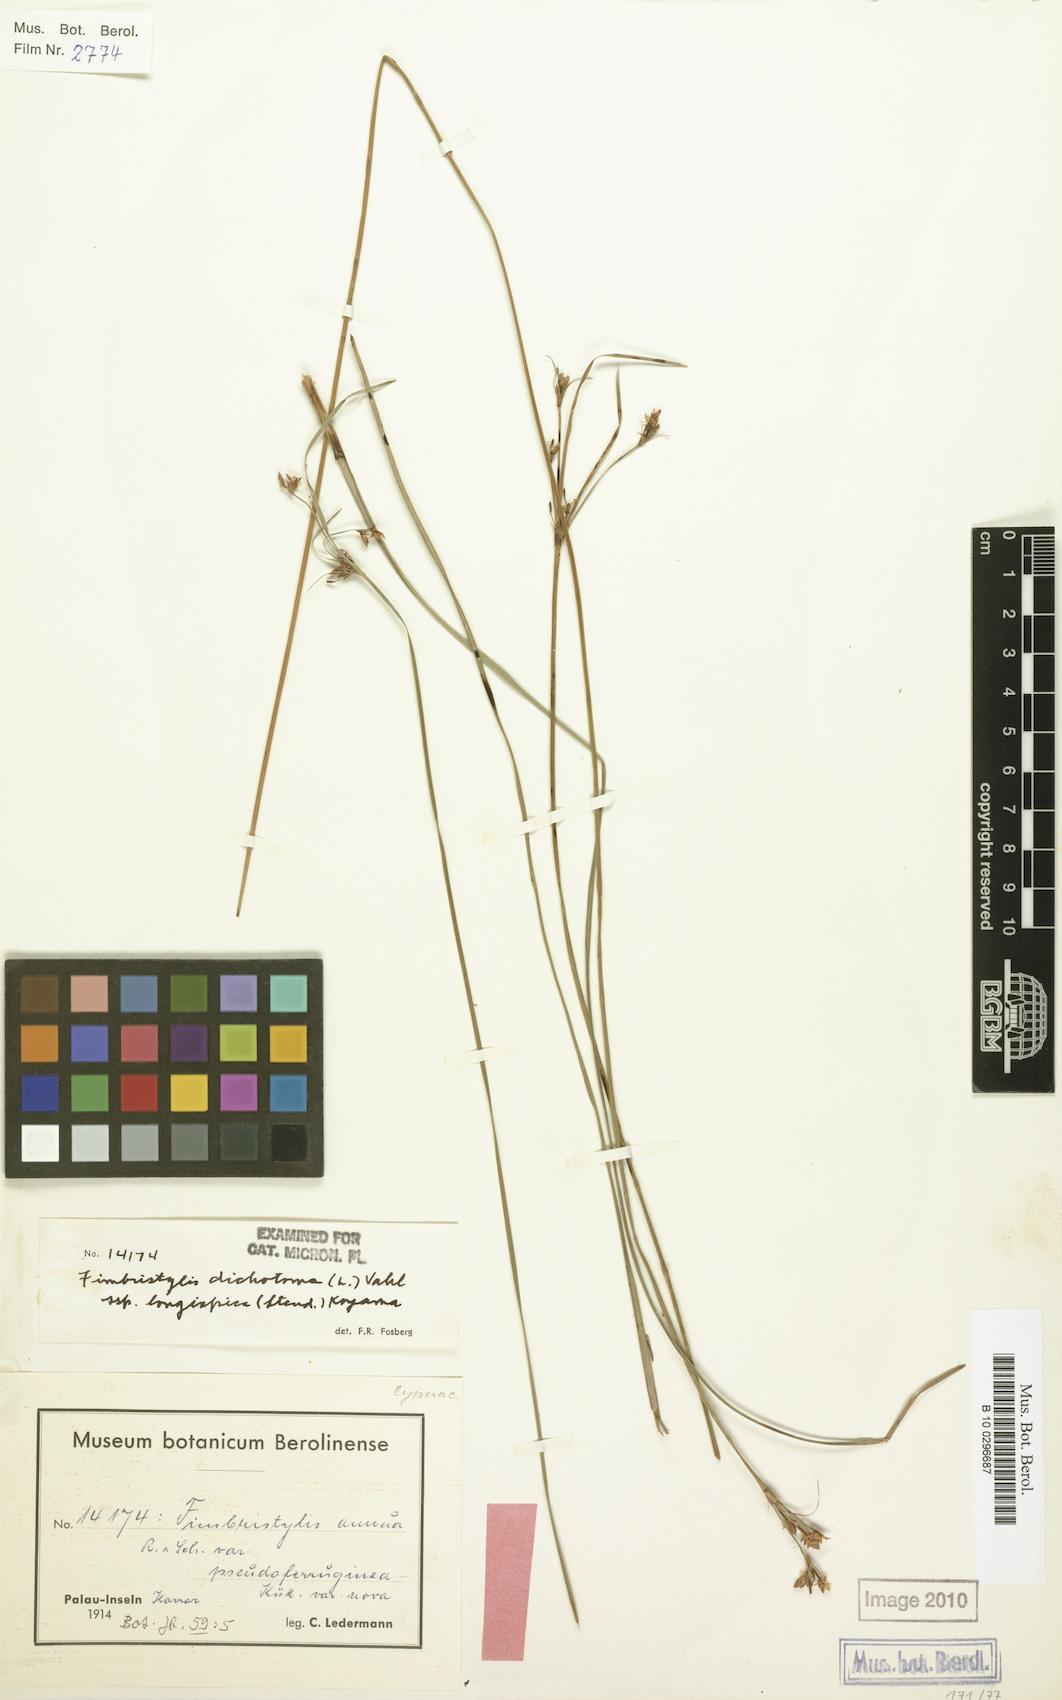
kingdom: Plantae
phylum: Tracheophyta
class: Liliopsida
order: Poales
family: Cyperaceae
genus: Fimbristylis
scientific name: Fimbristylis longispica
